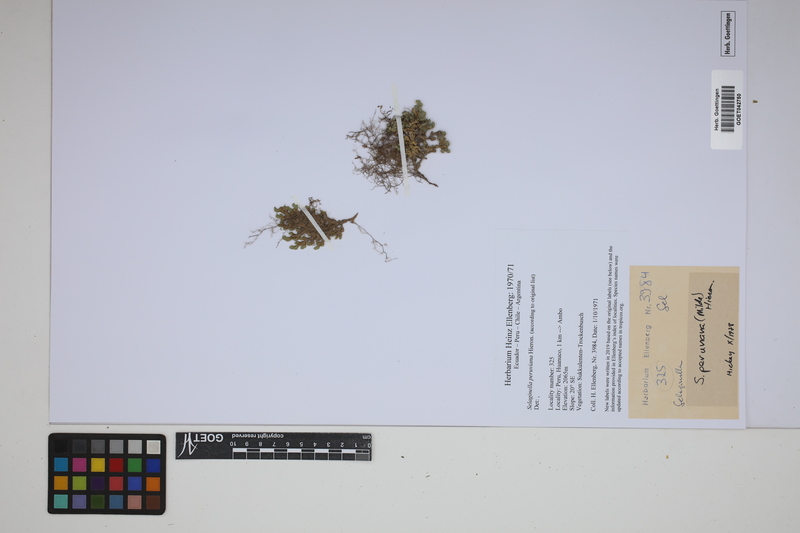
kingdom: Plantae
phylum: Tracheophyta
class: Lycopodiopsida
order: Selaginellales
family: Selaginellaceae
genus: Selaginella
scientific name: Selaginella peruviana
